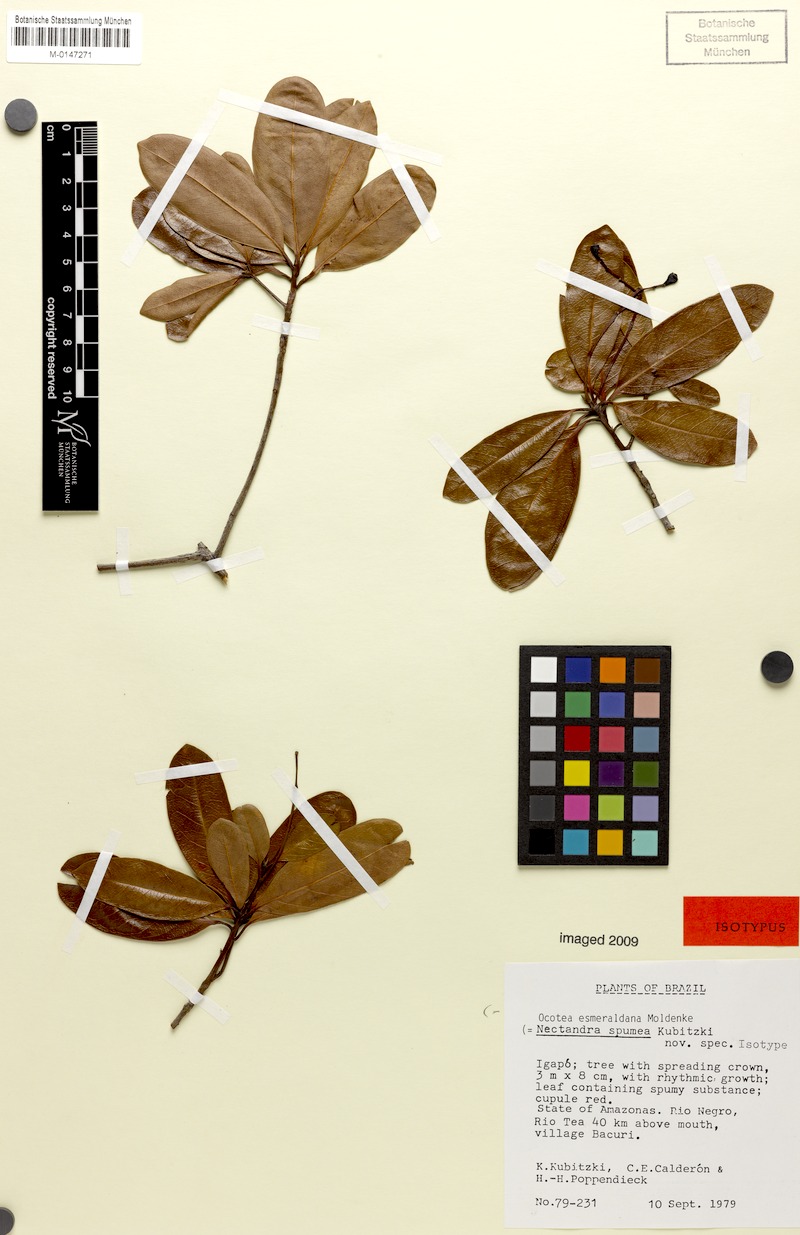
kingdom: Plantae
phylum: Tracheophyta
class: Magnoliopsida
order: Laurales
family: Lauraceae
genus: Ocotea
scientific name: Ocotea esmeraldana
